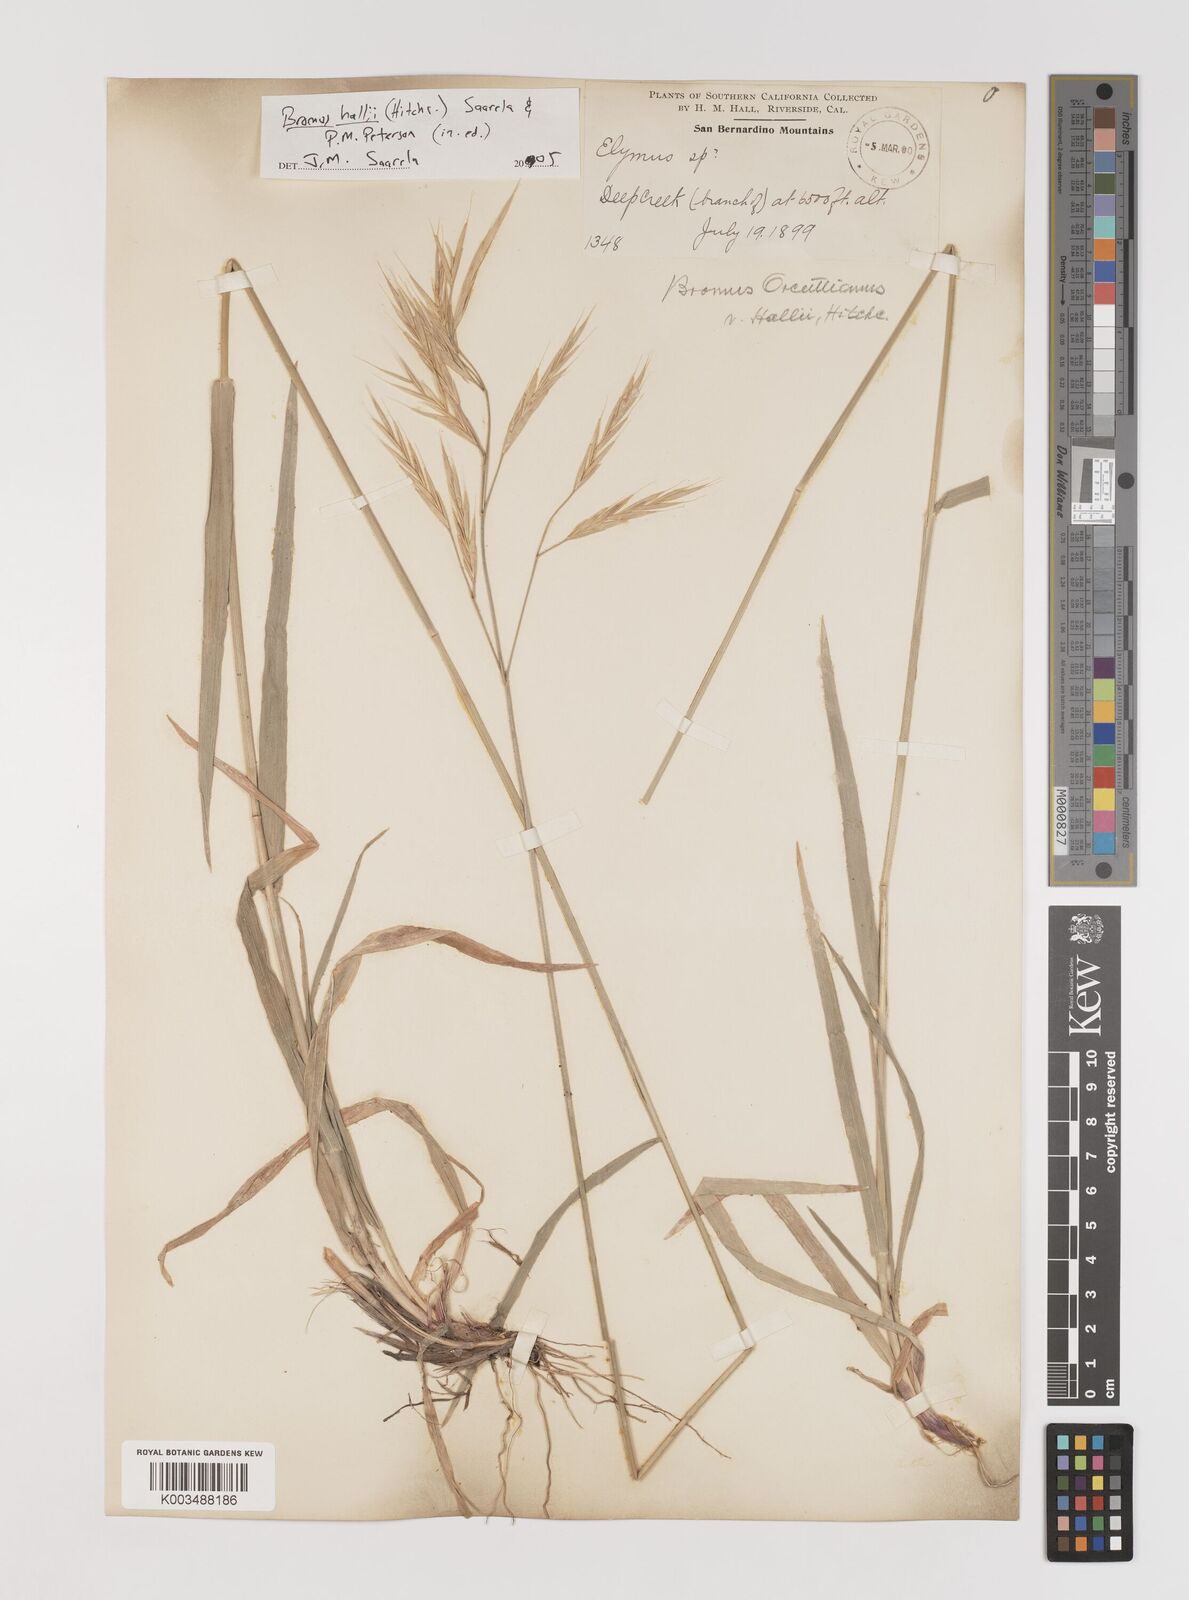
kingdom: Plantae
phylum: Tracheophyta
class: Liliopsida
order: Poales
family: Poaceae
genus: Bromus
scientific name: Bromus
